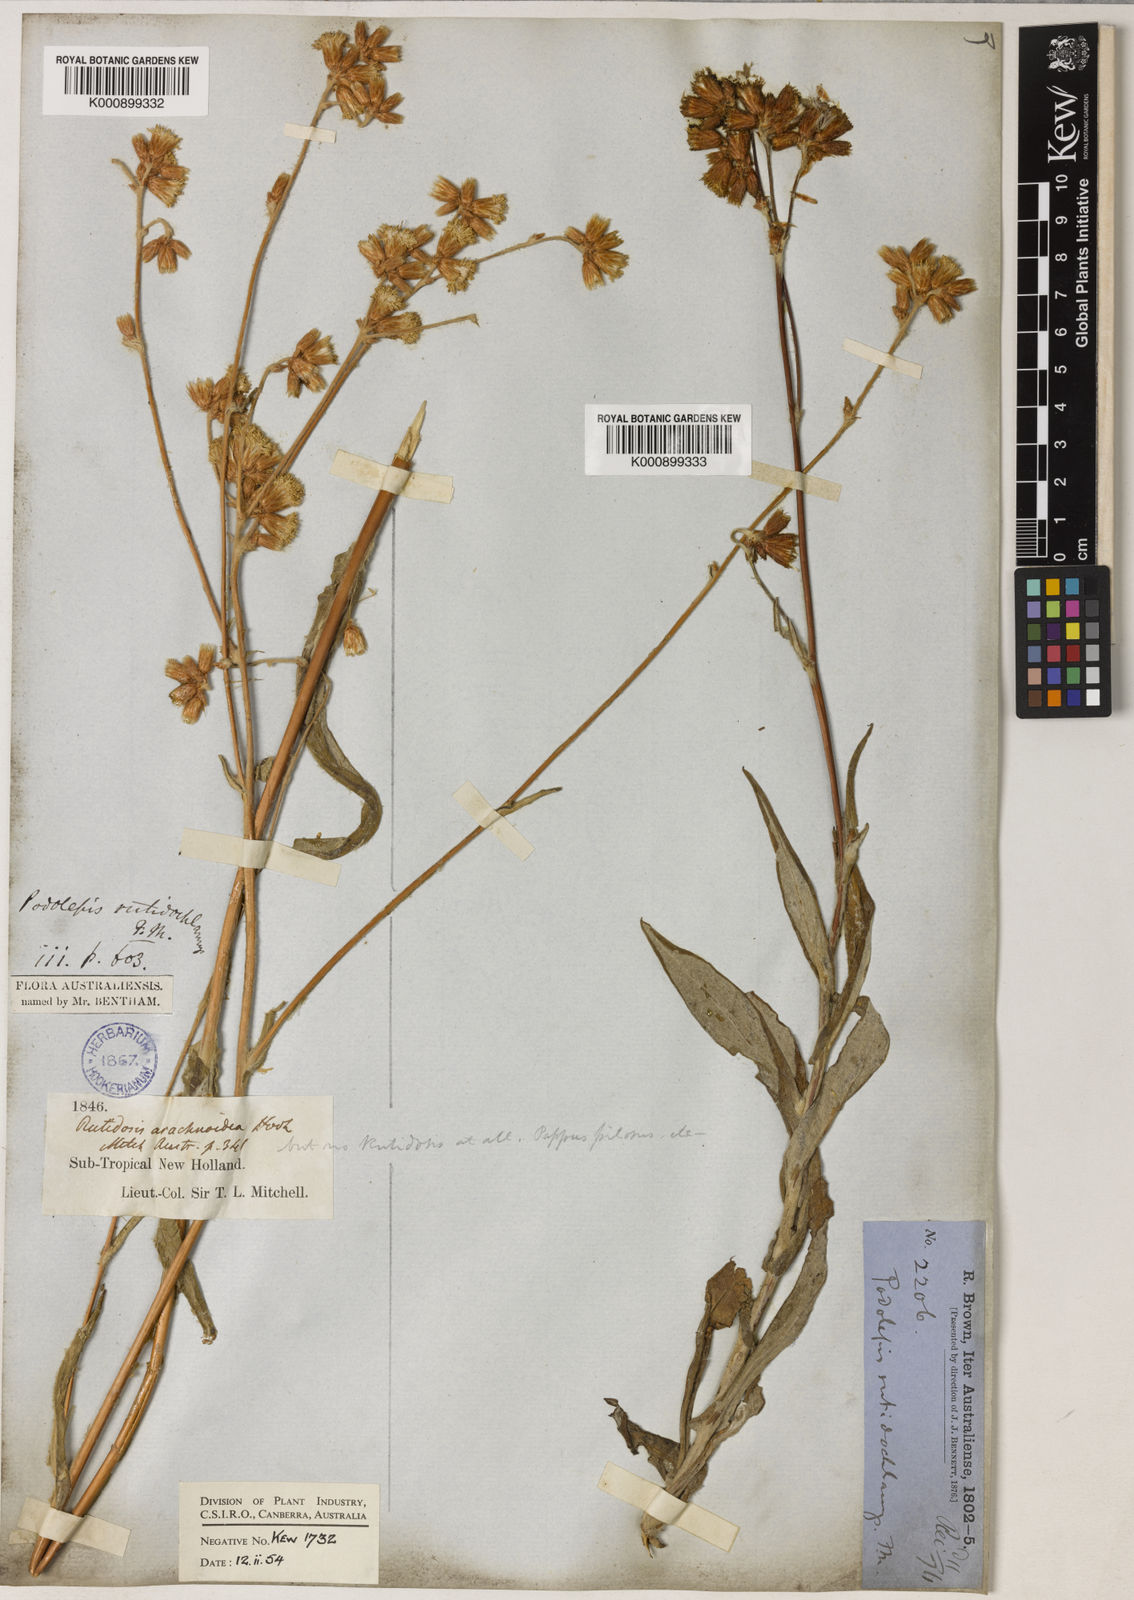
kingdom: Plantae
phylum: Tracheophyta
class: Magnoliopsida
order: Asterales
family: Asteraceae
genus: Podolepis
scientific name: Podolepis arachnoidea
